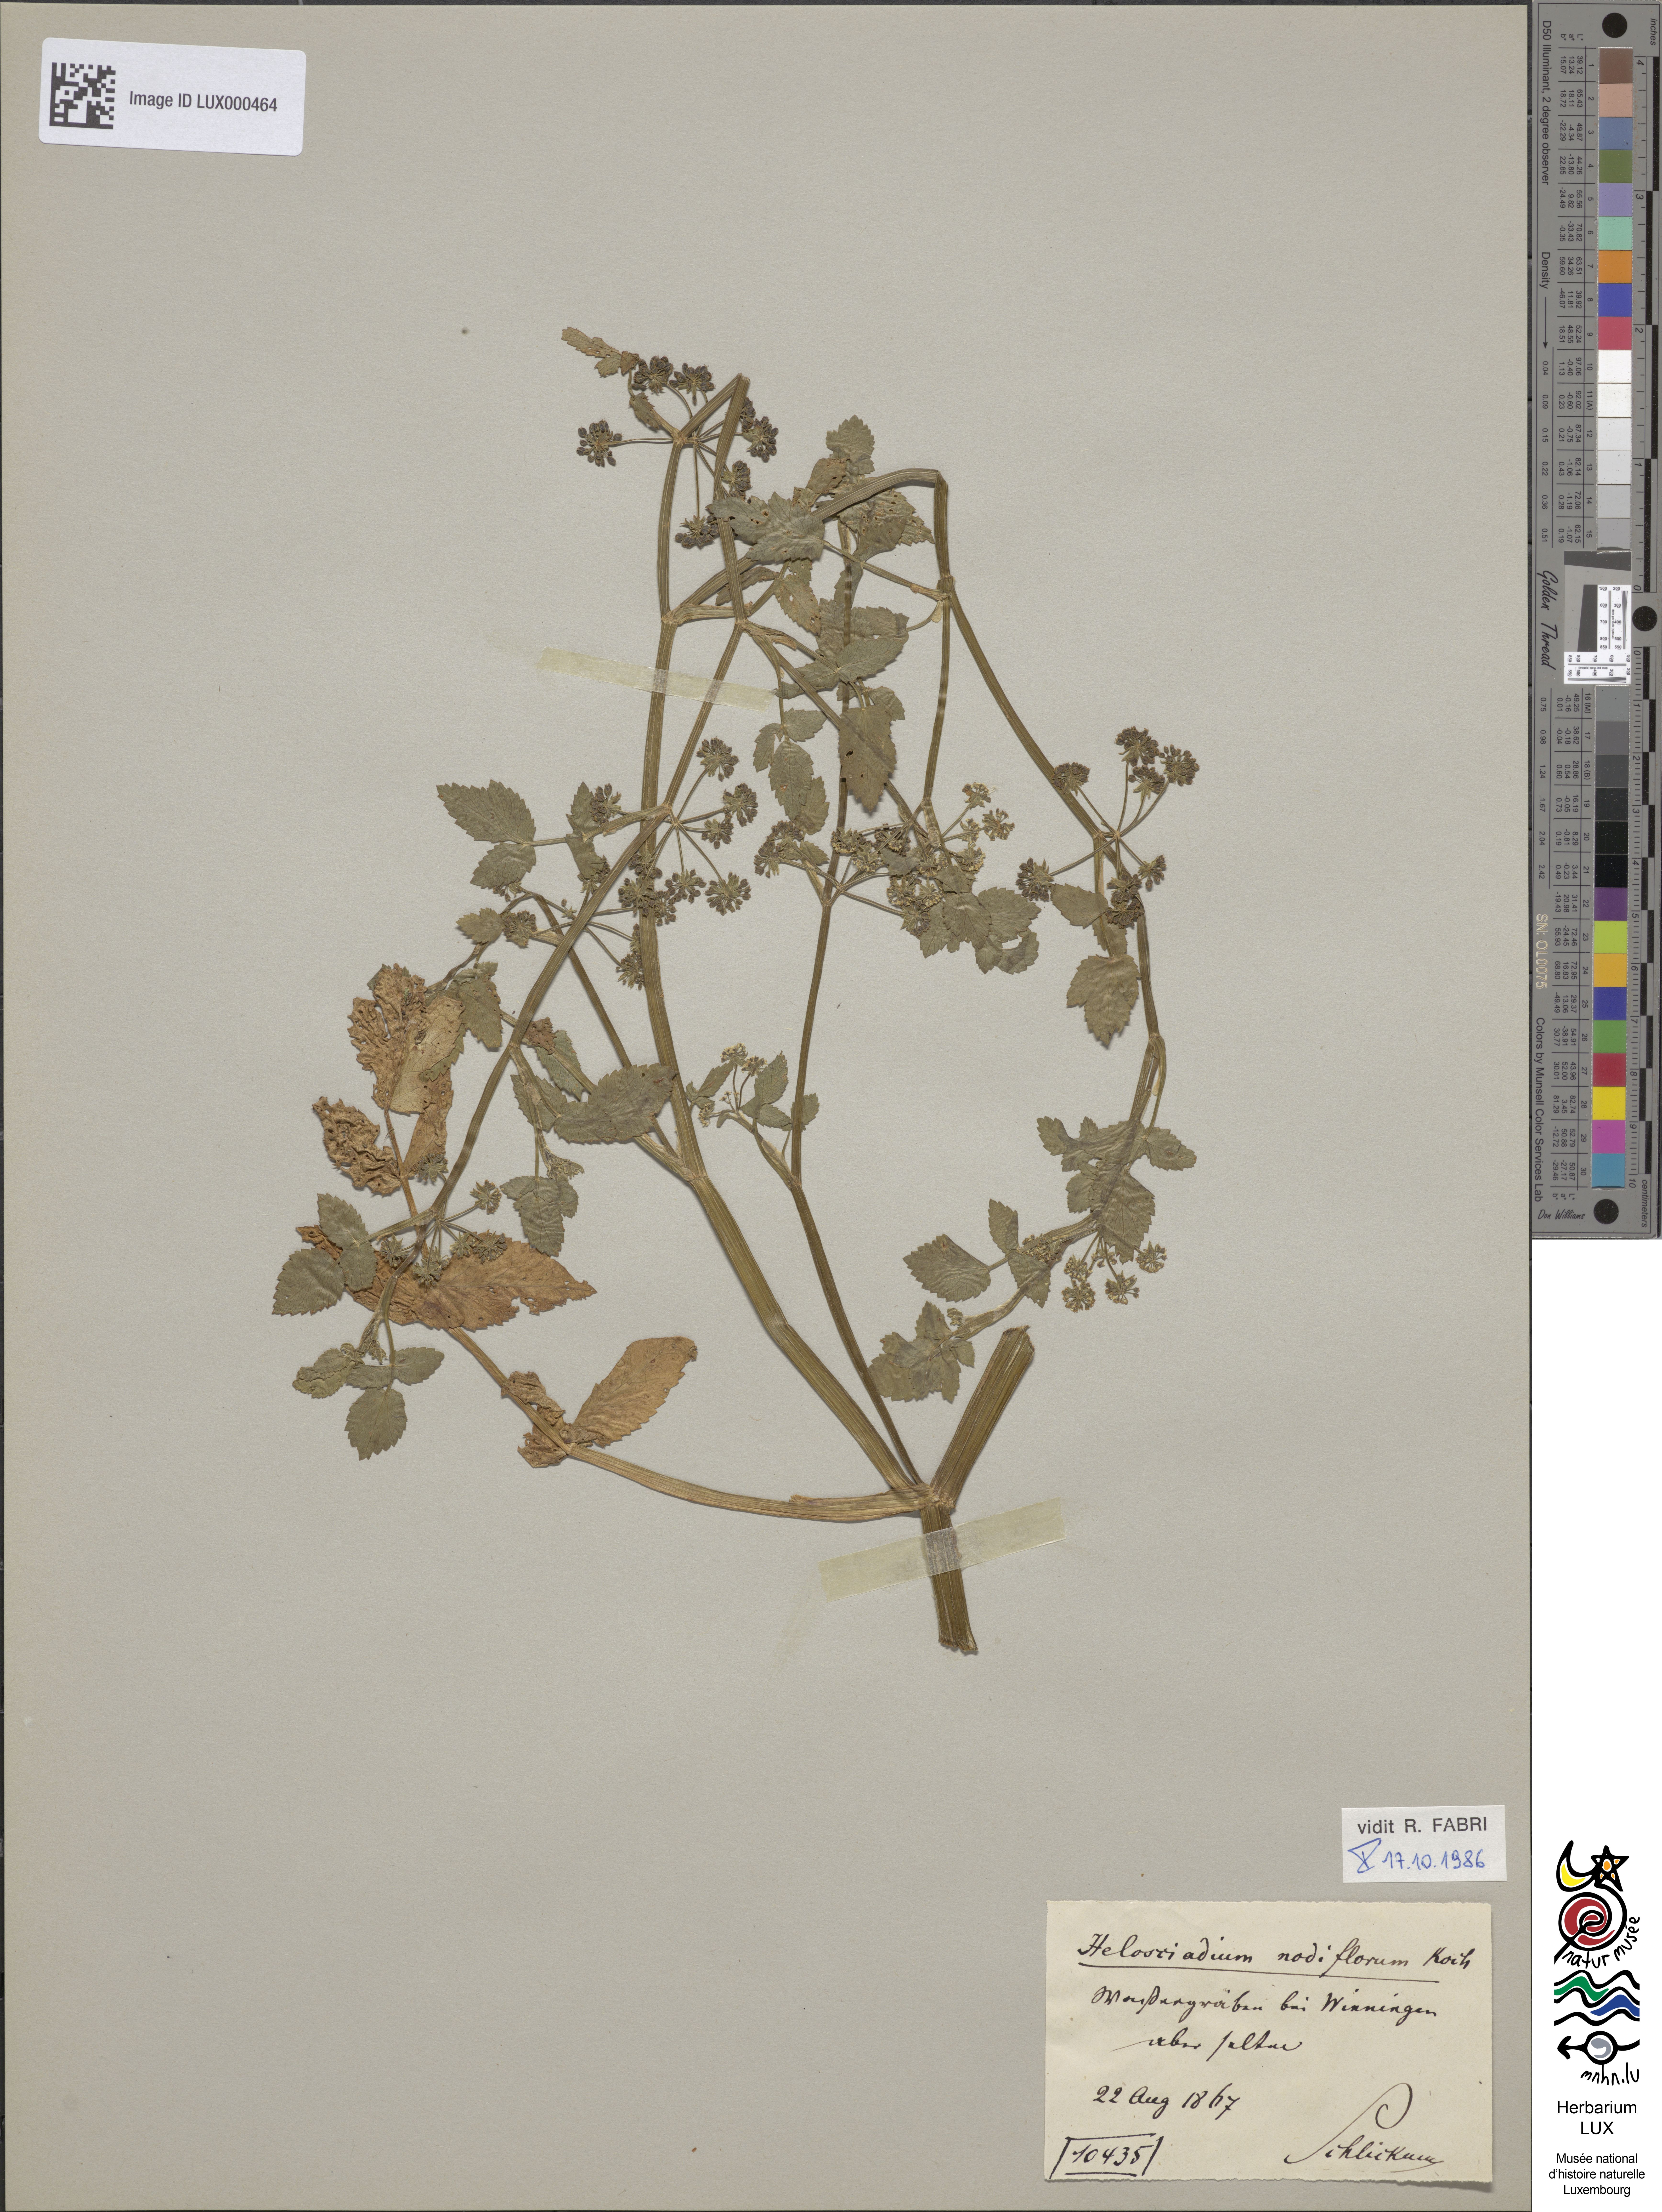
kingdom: Plantae
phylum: Tracheophyta
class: Magnoliopsida
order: Apiales
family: Apiaceae
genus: Helosciadium
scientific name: Helosciadium nodiflorum
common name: Fool's-watercress
